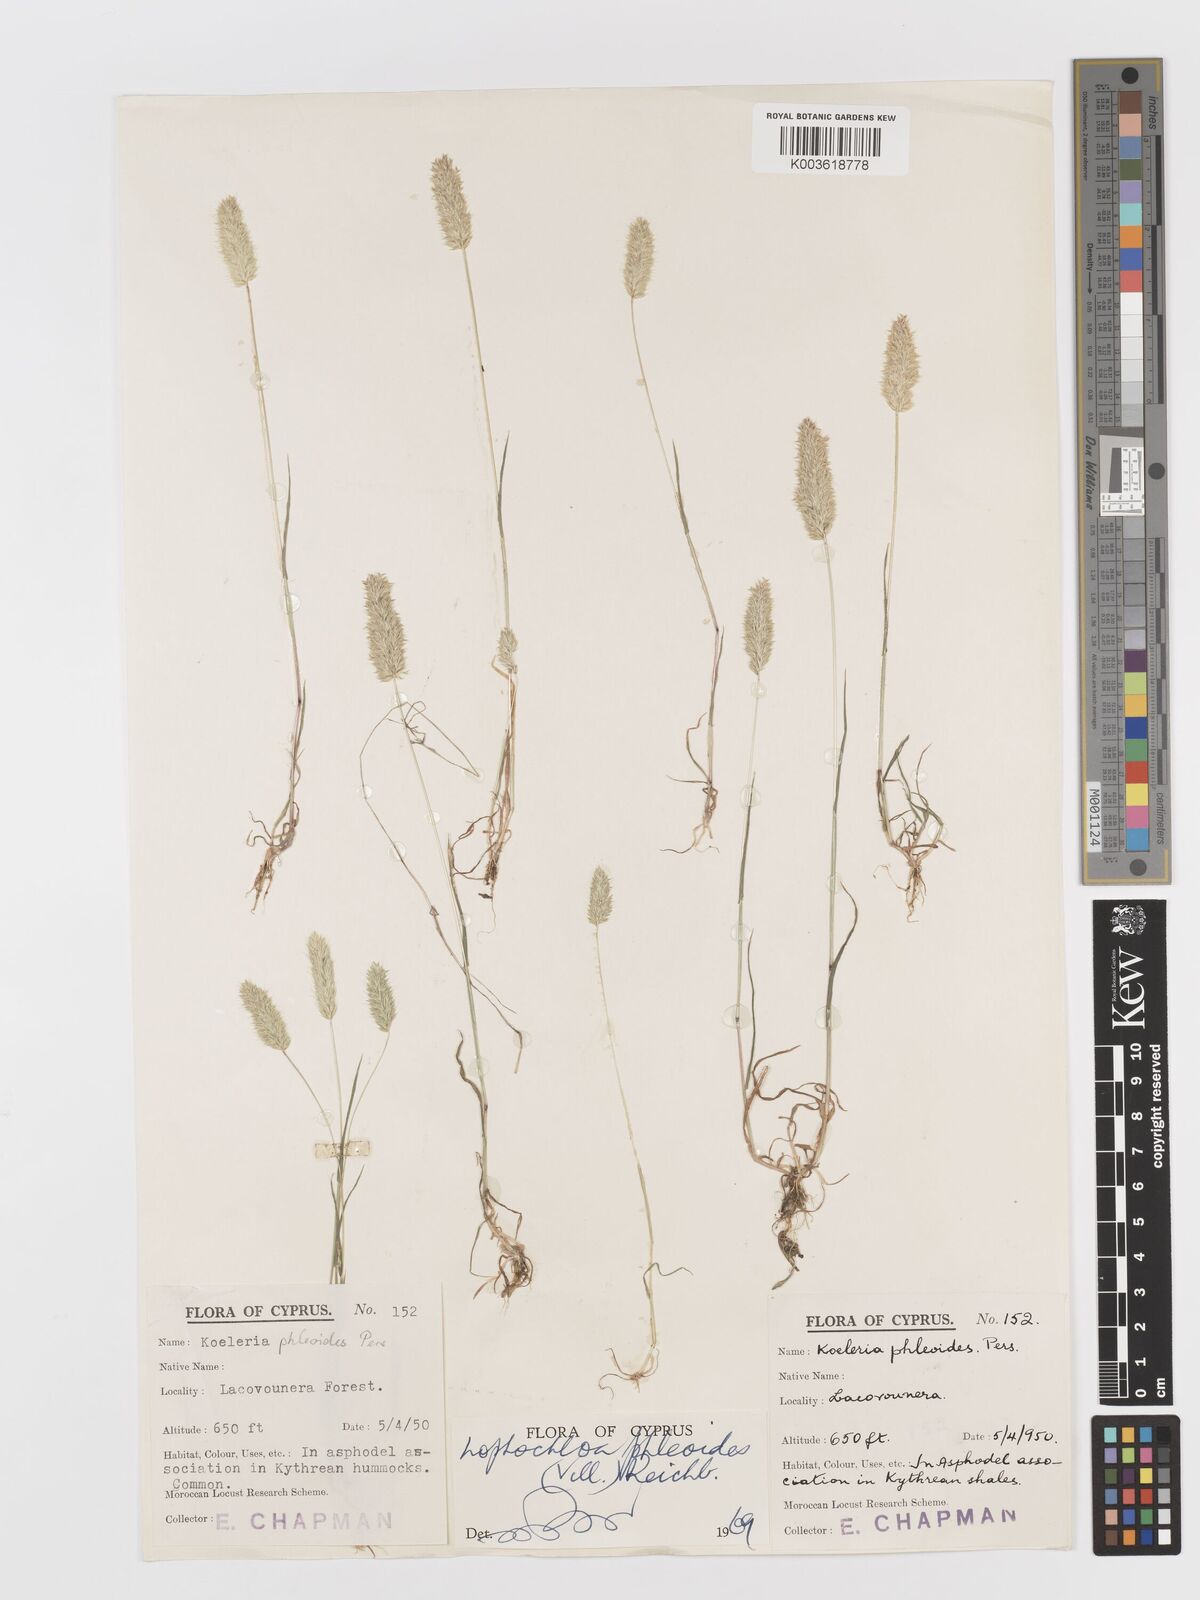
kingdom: Plantae
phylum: Tracheophyta
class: Liliopsida
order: Poales
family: Poaceae
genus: Rostraria
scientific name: Rostraria cristata
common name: Mediterranean hair-grass
